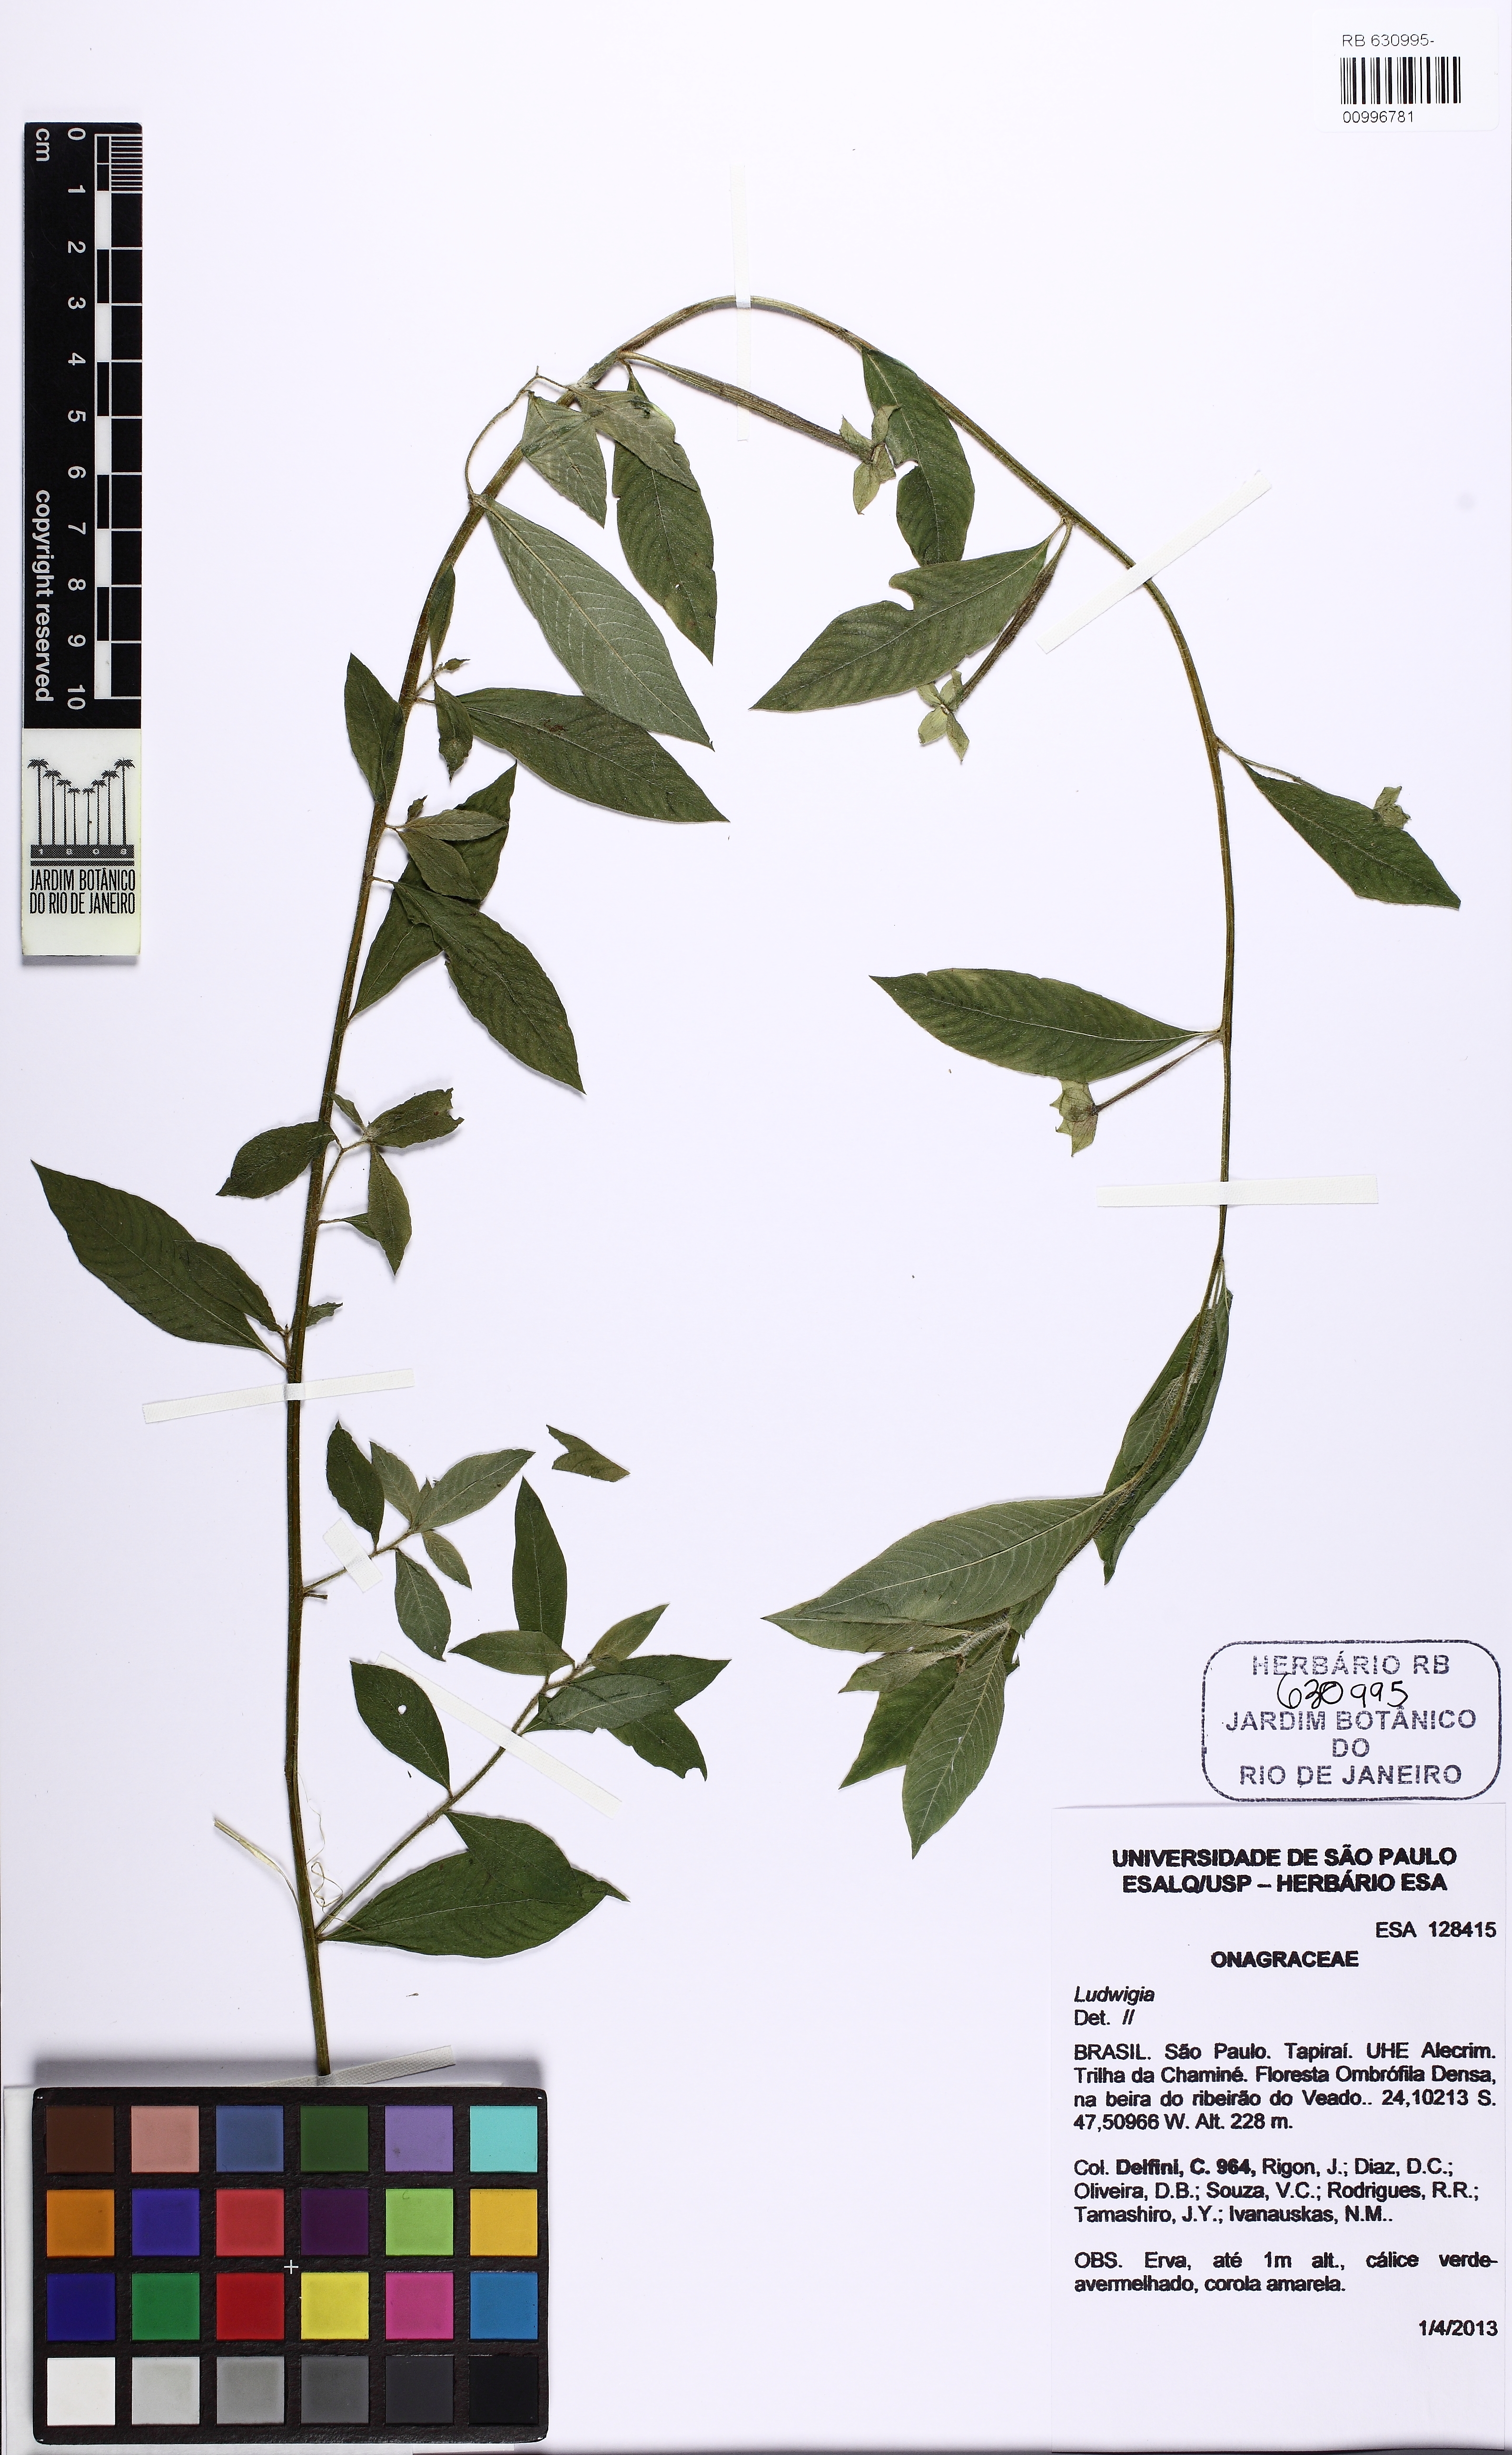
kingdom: Plantae
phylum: Tracheophyta
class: Magnoliopsida
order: Myrtales
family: Onagraceae
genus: Ludwigia
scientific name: Ludwigia
